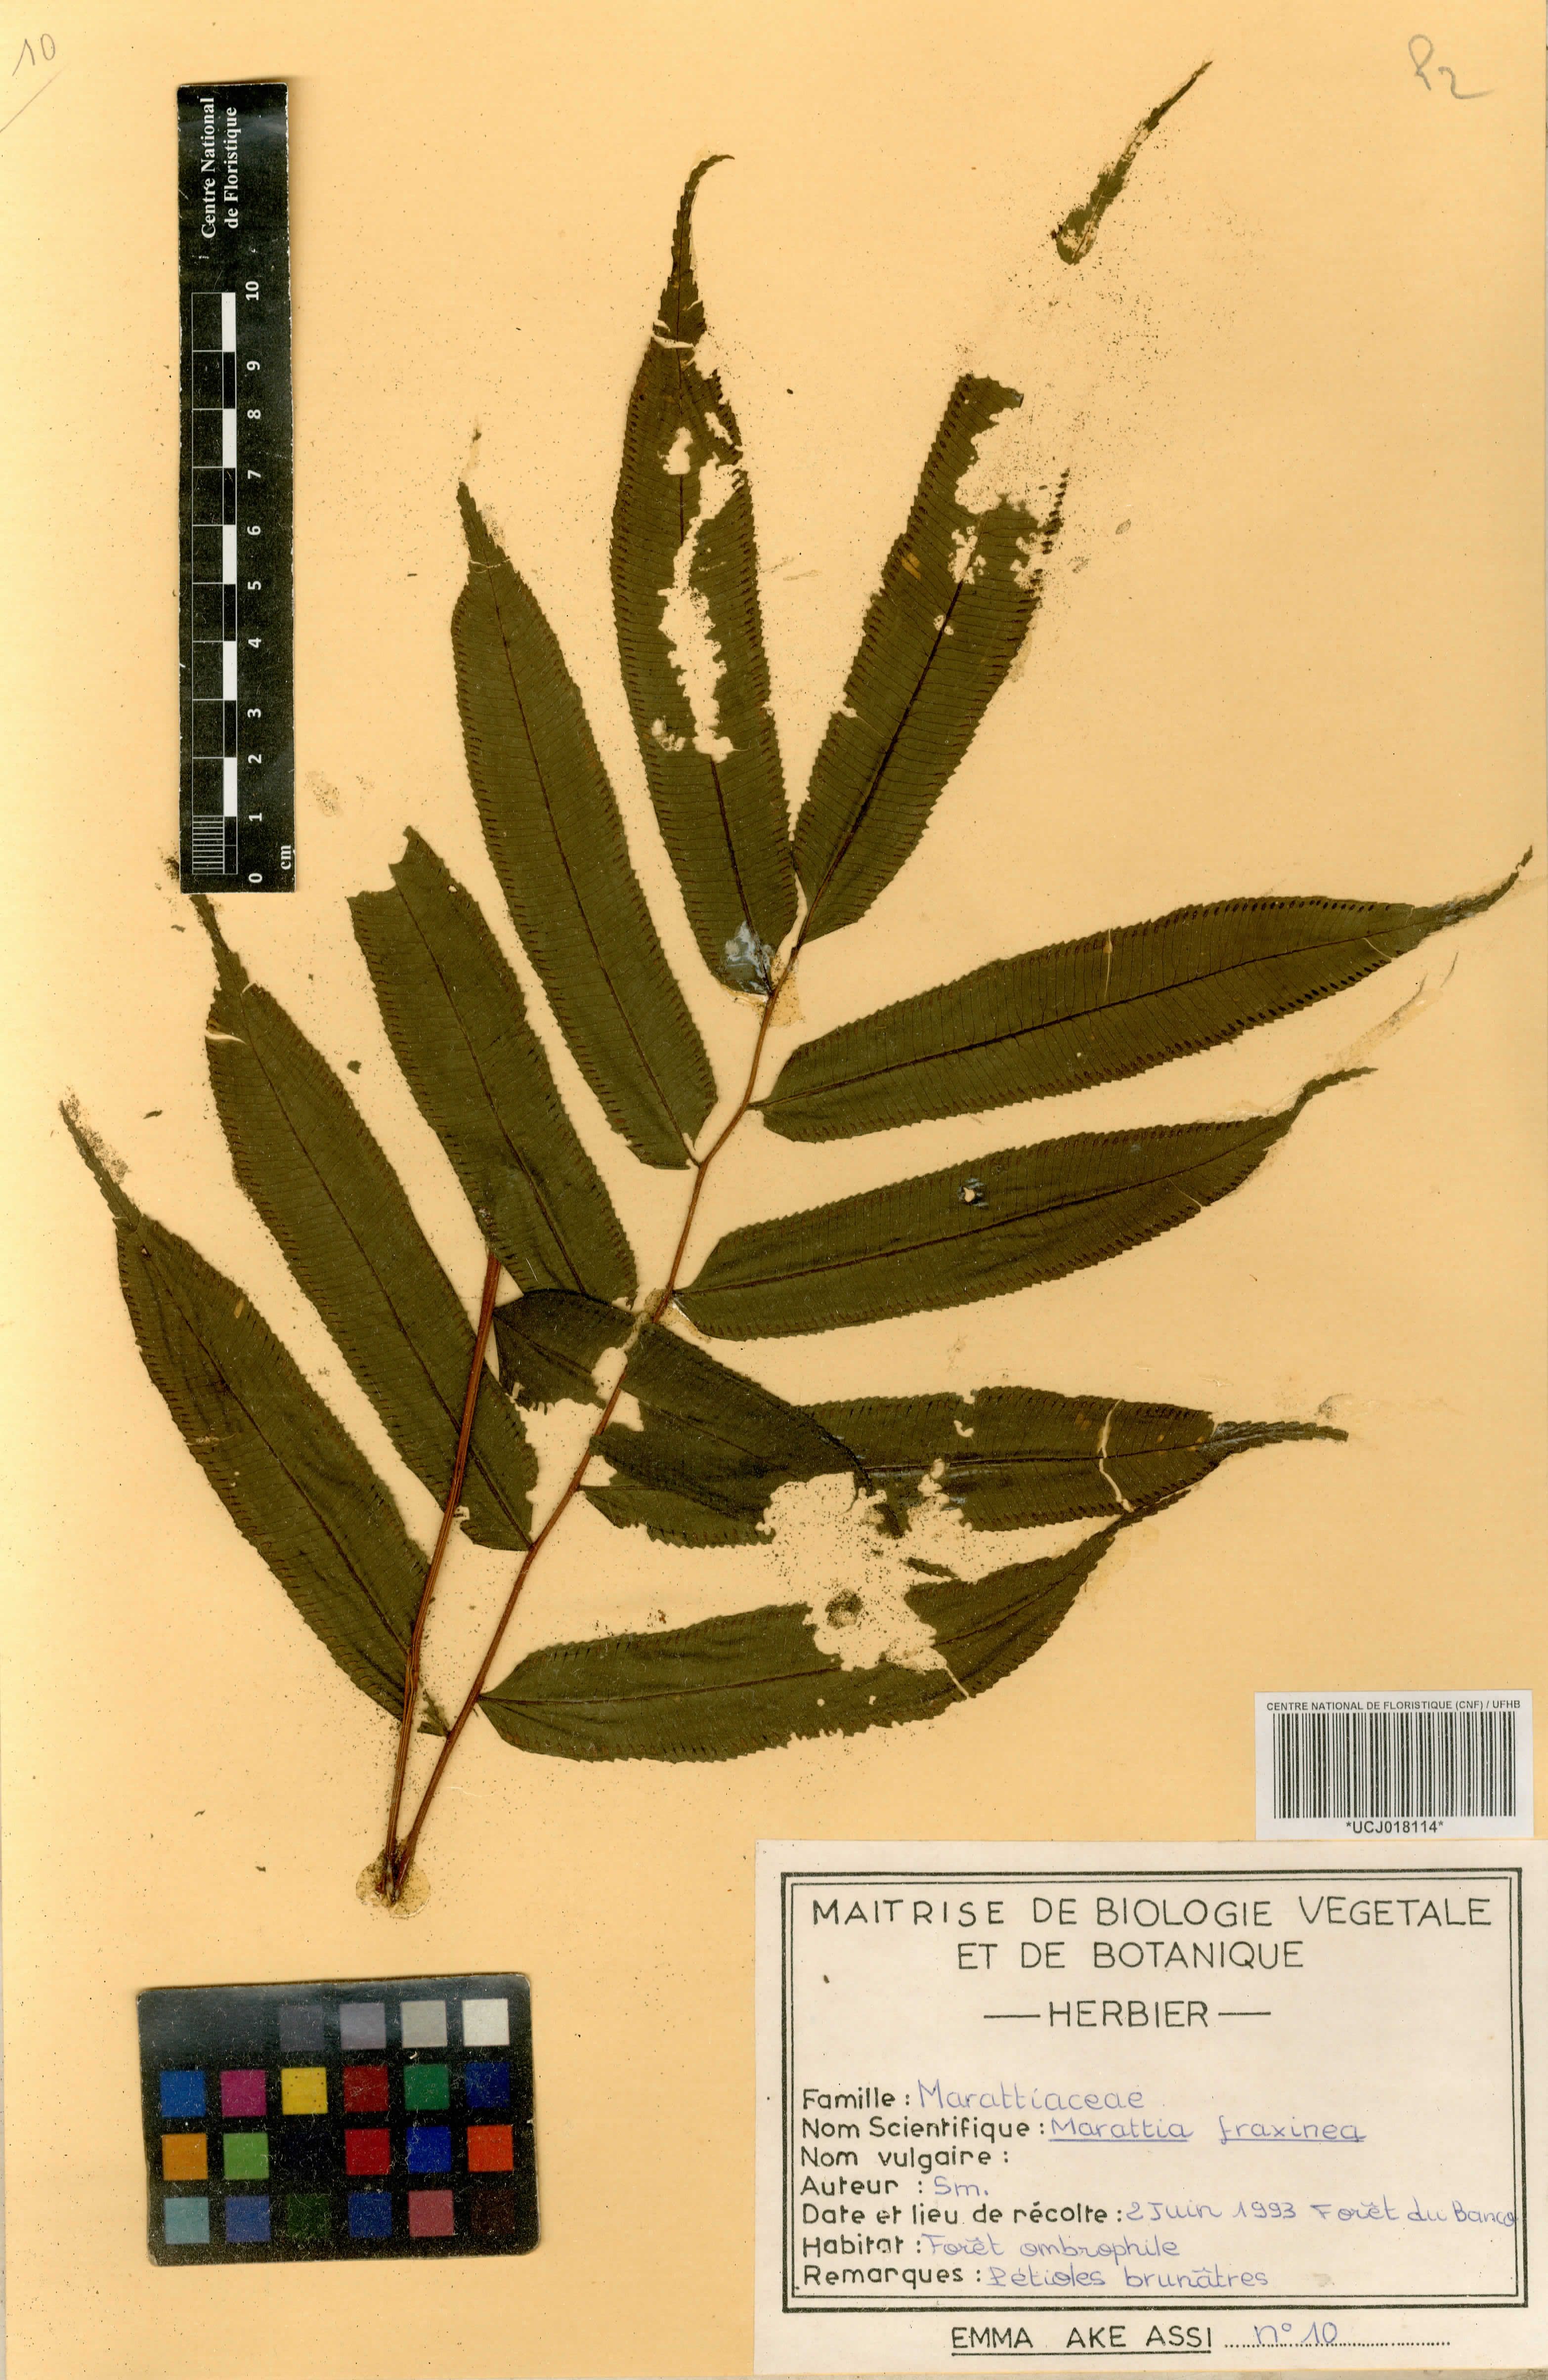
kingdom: Plantae
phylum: Tracheophyta
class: Polypodiopsida
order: Marattiales
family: Marattiaceae
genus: Ptisana
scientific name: Ptisana fraxinea
